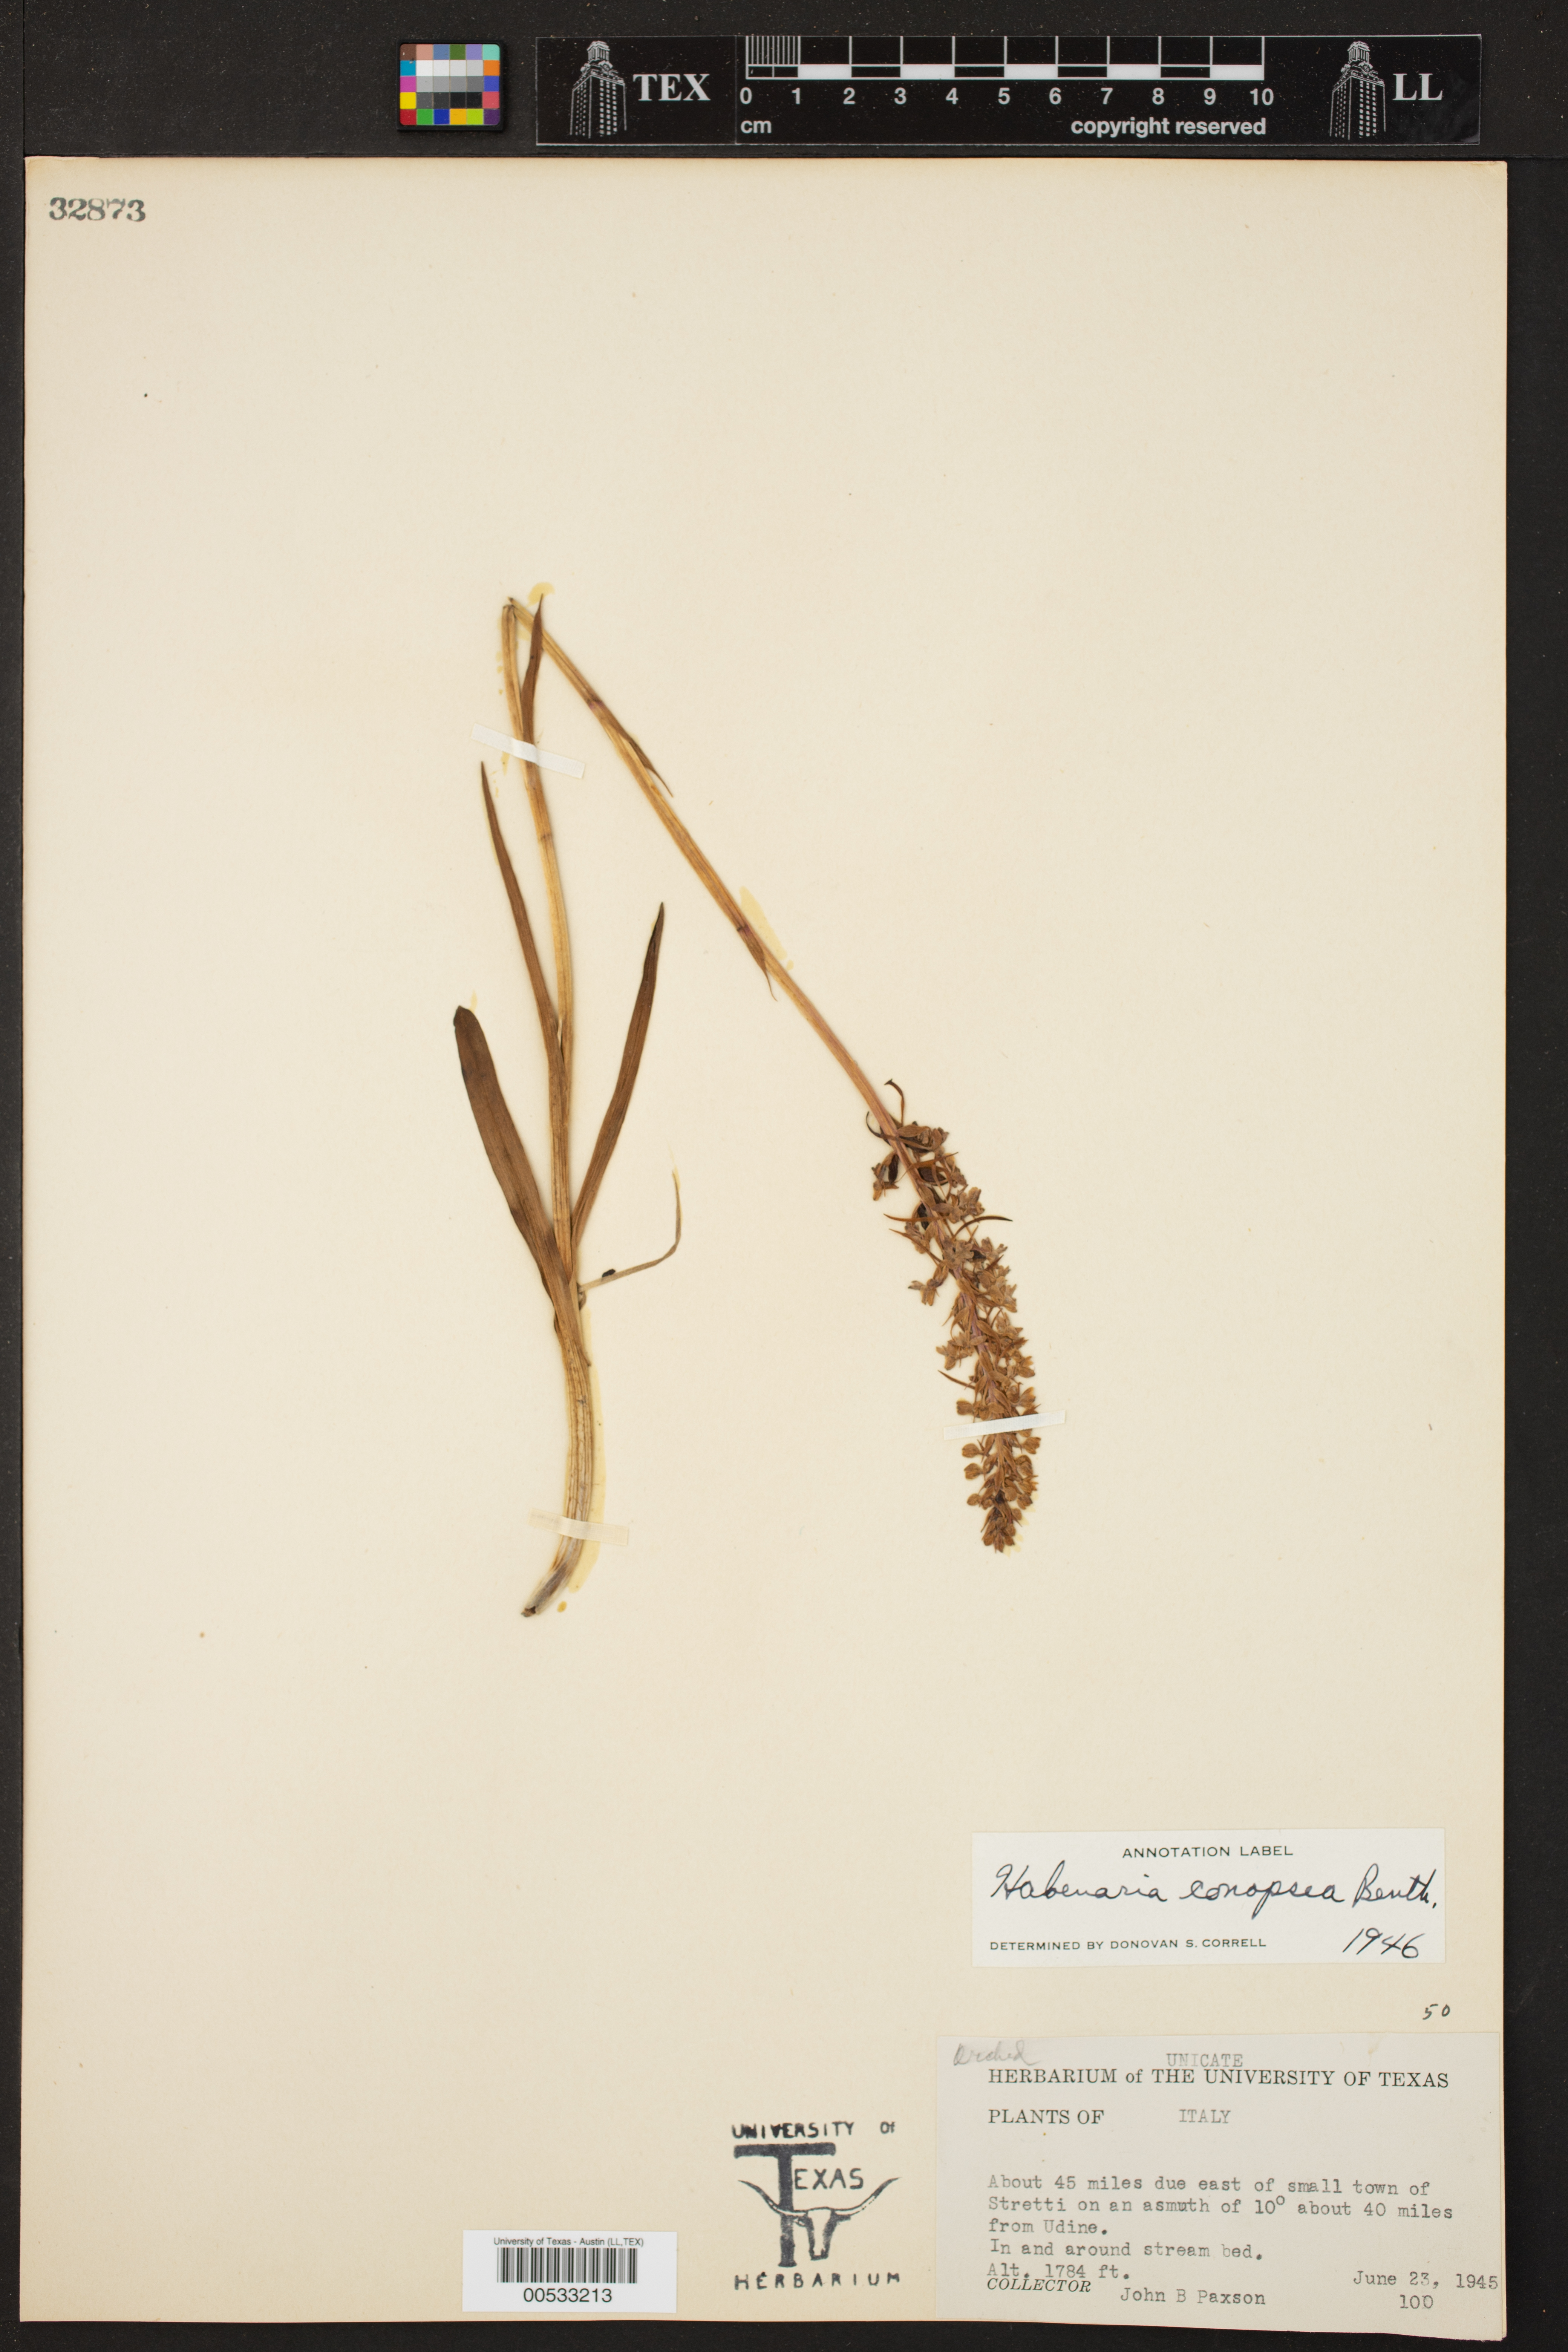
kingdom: Plantae
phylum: Tracheophyta
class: Liliopsida
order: Asparagales
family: Orchidaceae
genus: Habenaria
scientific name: Habenaria conopsea
